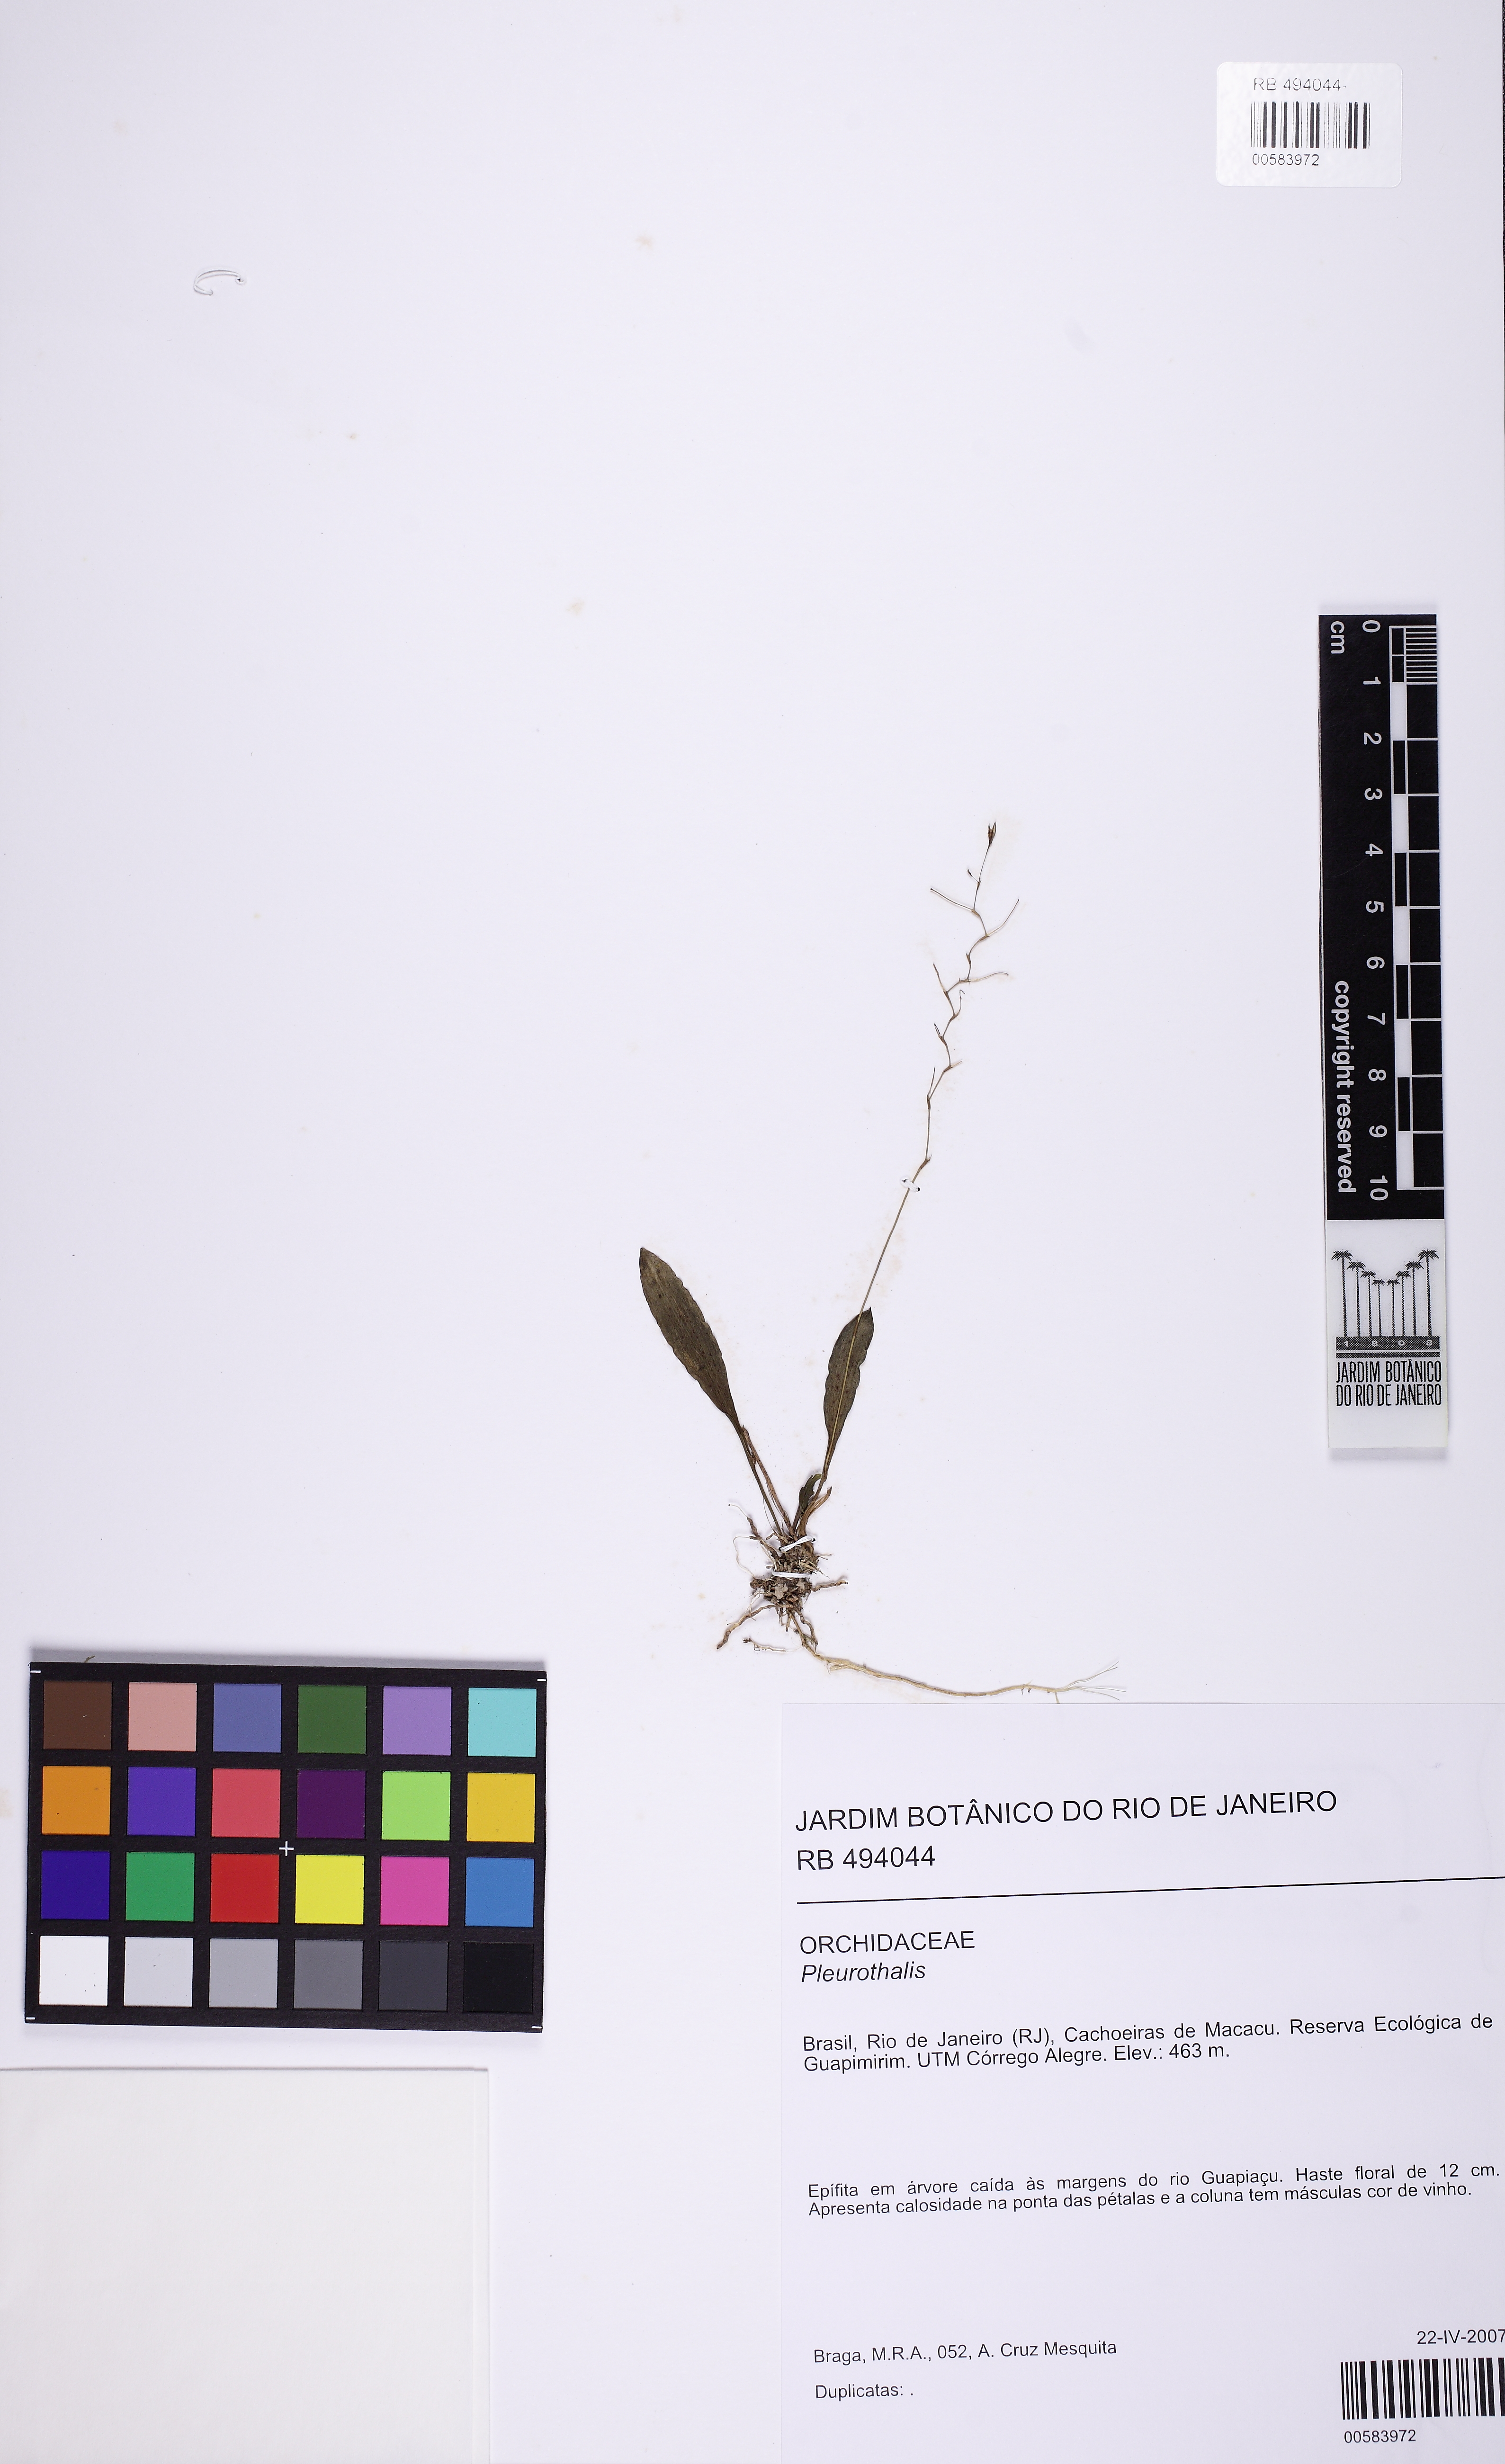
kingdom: Plantae
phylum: Tracheophyta
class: Liliopsida
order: Asparagales
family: Orchidaceae
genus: Acianthera
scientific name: Acianthera
